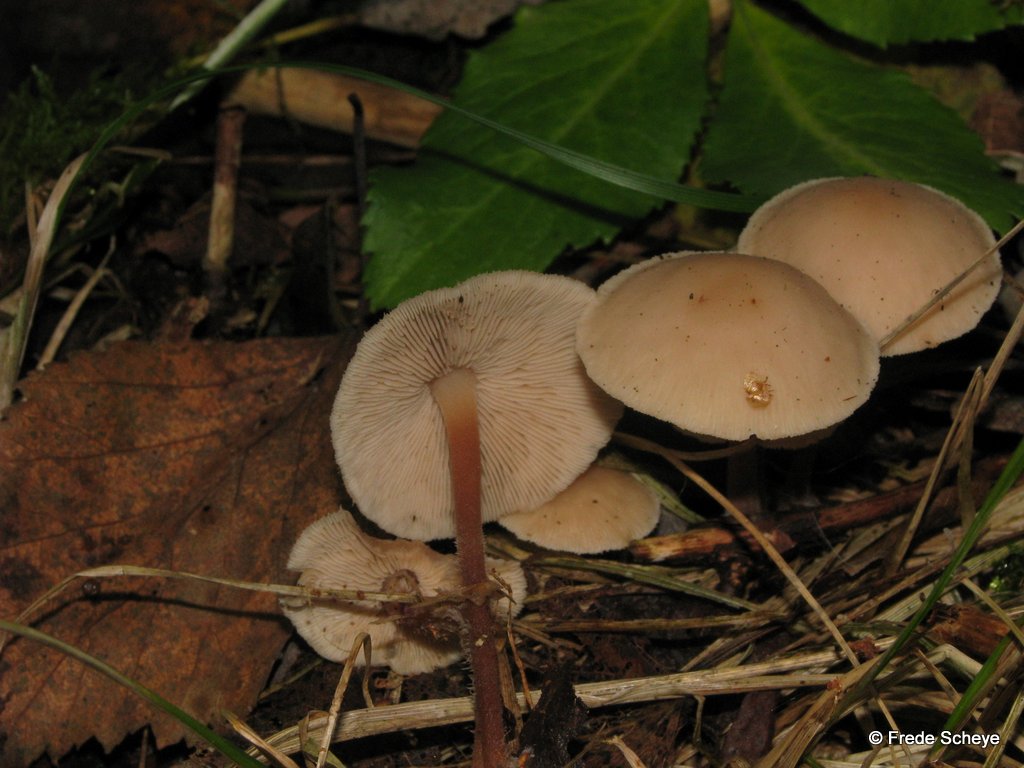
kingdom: Fungi
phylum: Basidiomycota
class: Agaricomycetes
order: Agaricales
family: Omphalotaceae
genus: Collybiopsis
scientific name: Collybiopsis confluens
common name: knippe-fladhat
